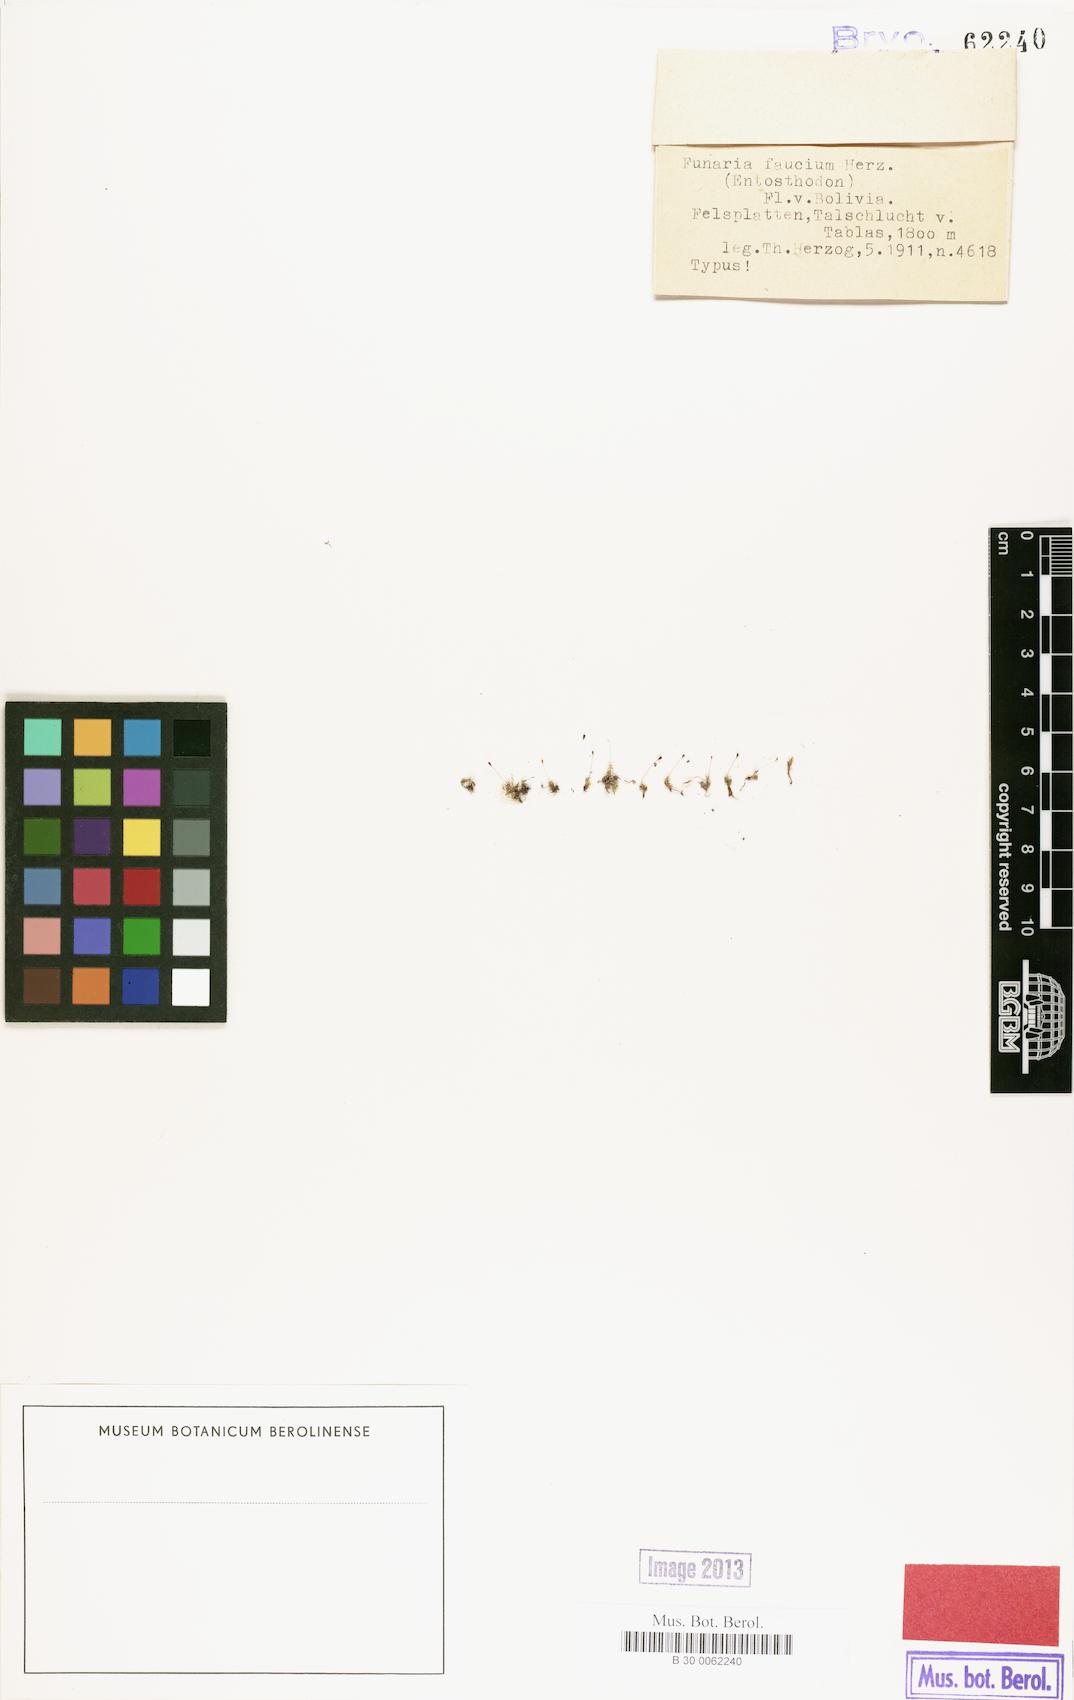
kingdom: Plantae
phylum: Bryophyta
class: Bryopsida
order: Funariales
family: Funariaceae
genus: Entosthodon
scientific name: Entosthodon bonplandii
